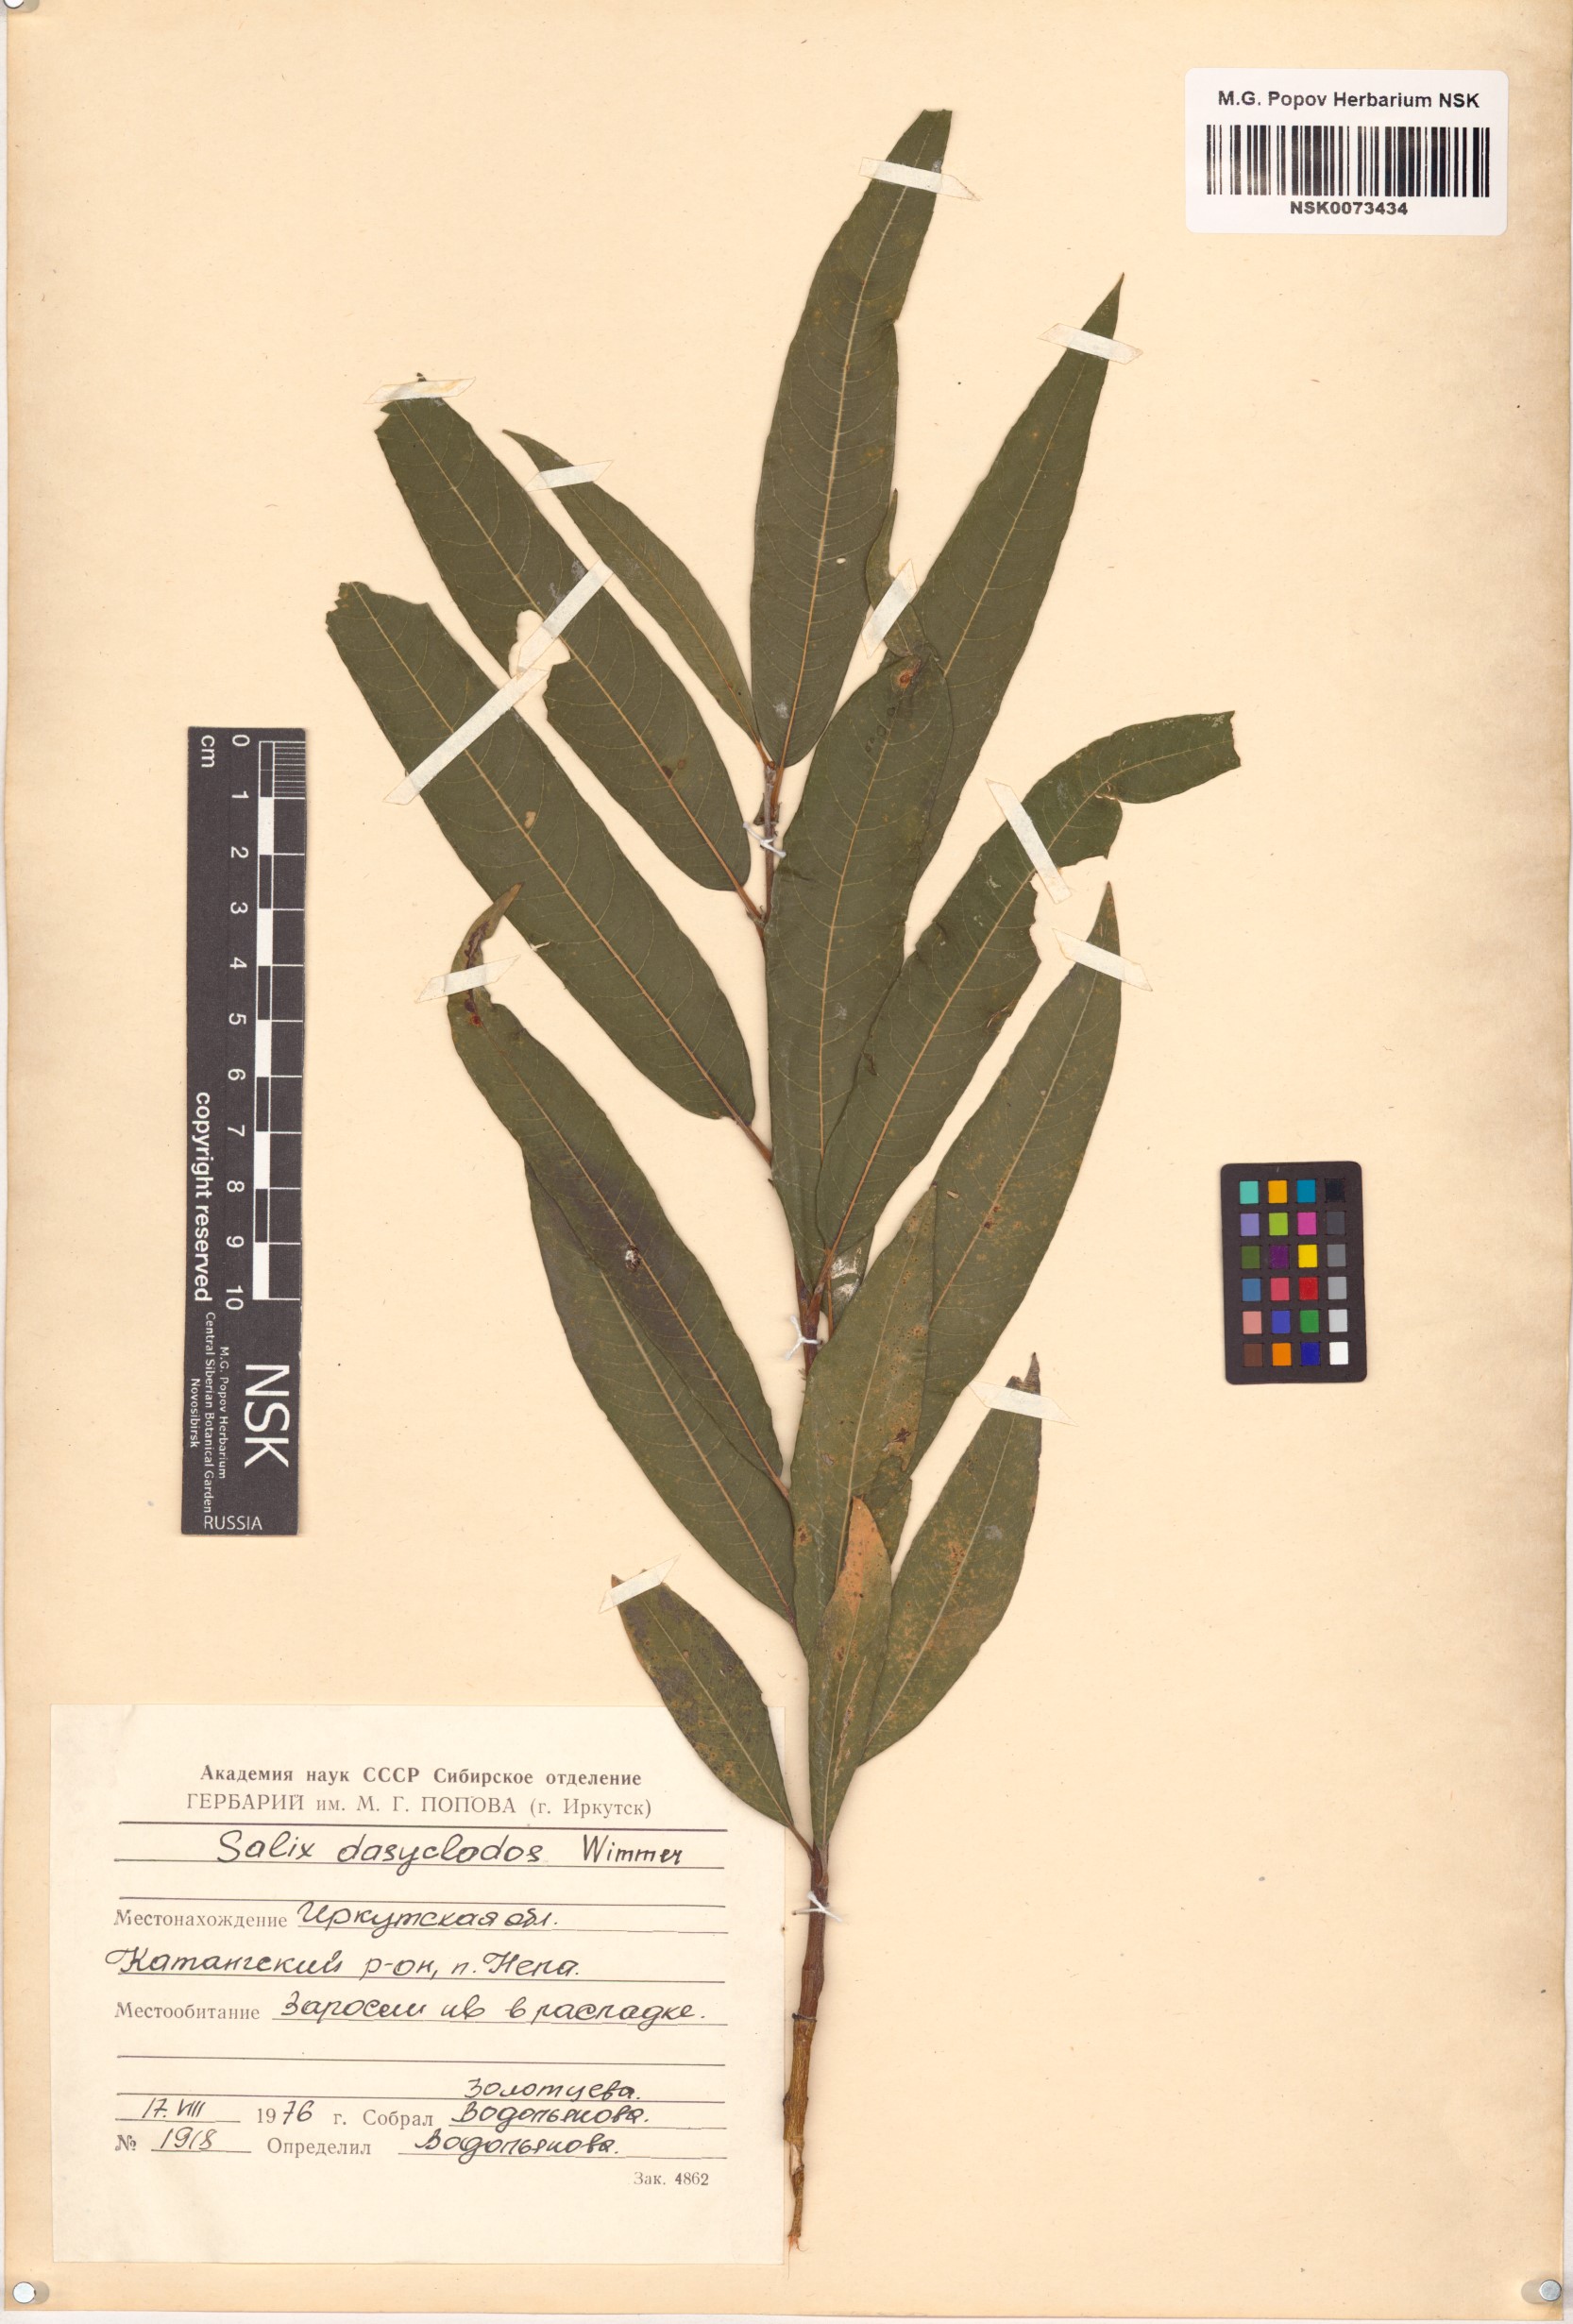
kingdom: Plantae
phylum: Tracheophyta
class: Magnoliopsida
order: Malpighiales
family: Salicaceae
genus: Salix
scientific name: Salix gmelinii
